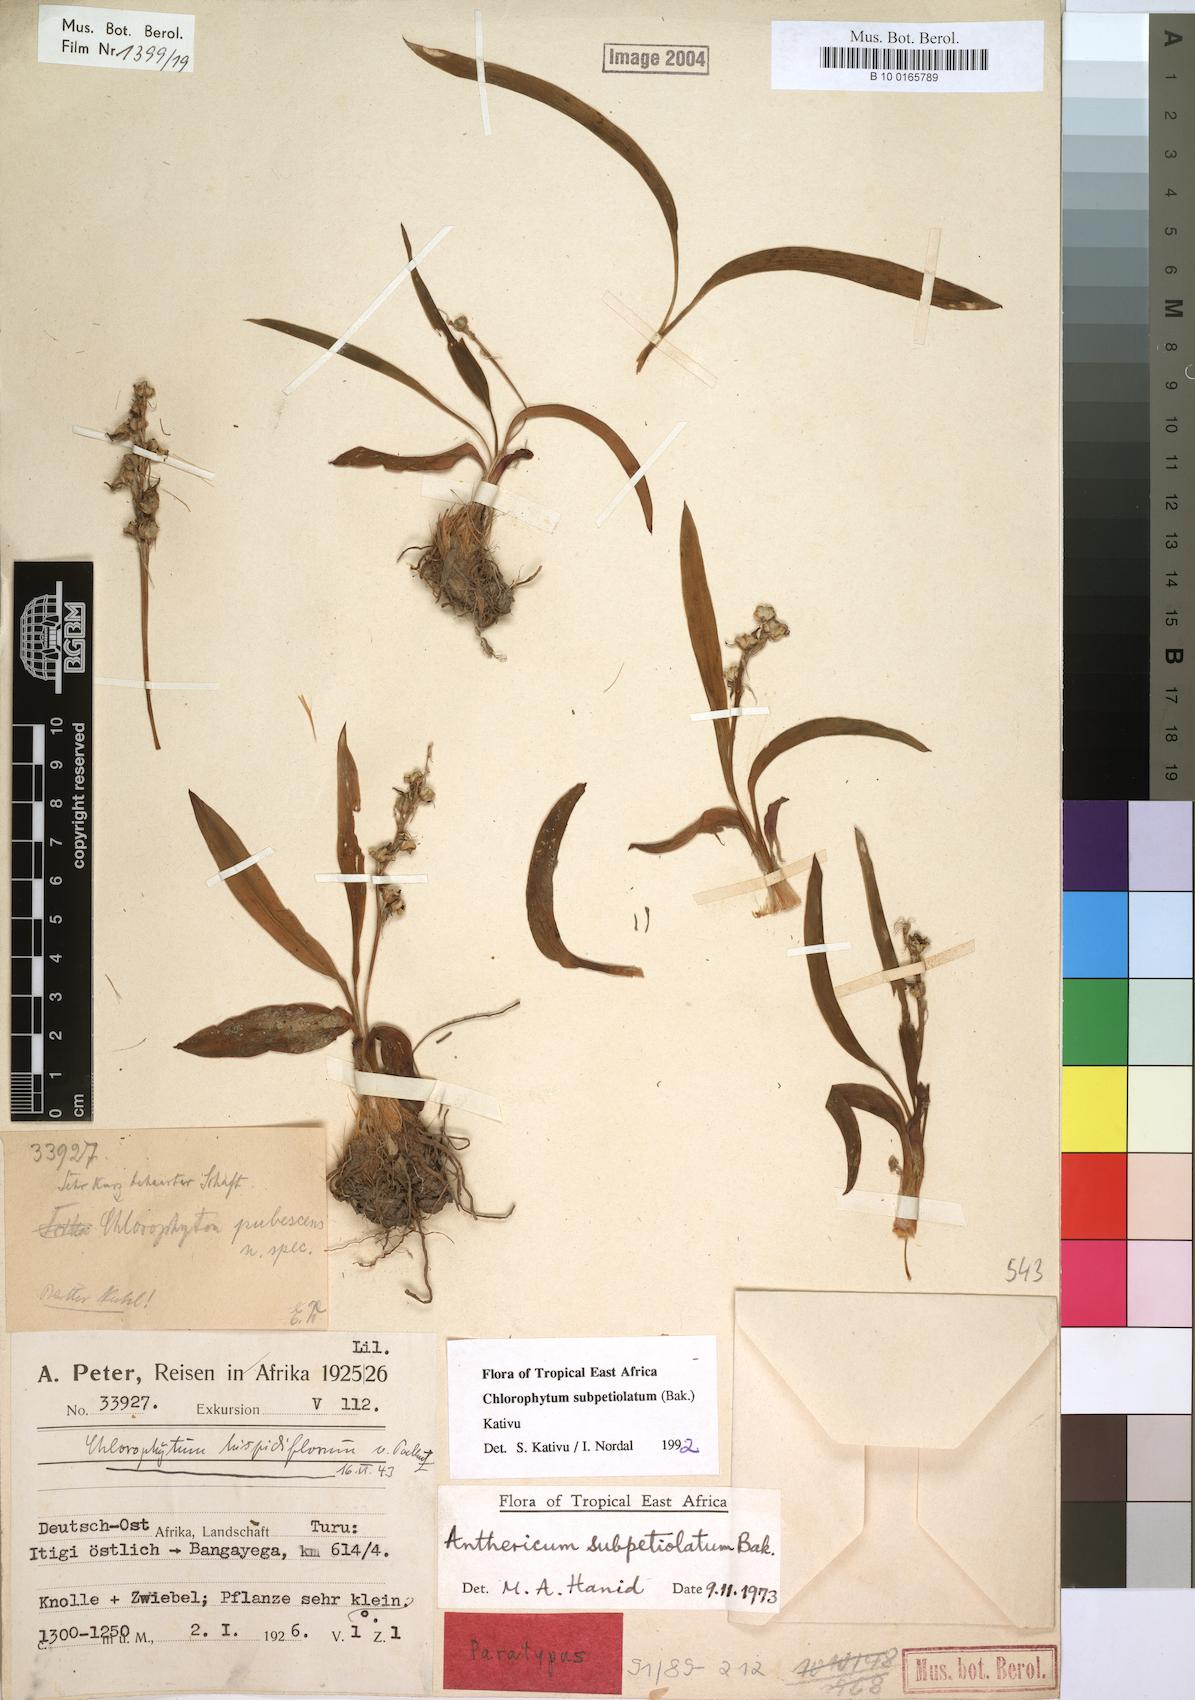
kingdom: Plantae
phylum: Tracheophyta
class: Liliopsida
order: Asparagales
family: Asparagaceae
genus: Chlorophytum
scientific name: Chlorophytum subpetiolatum
